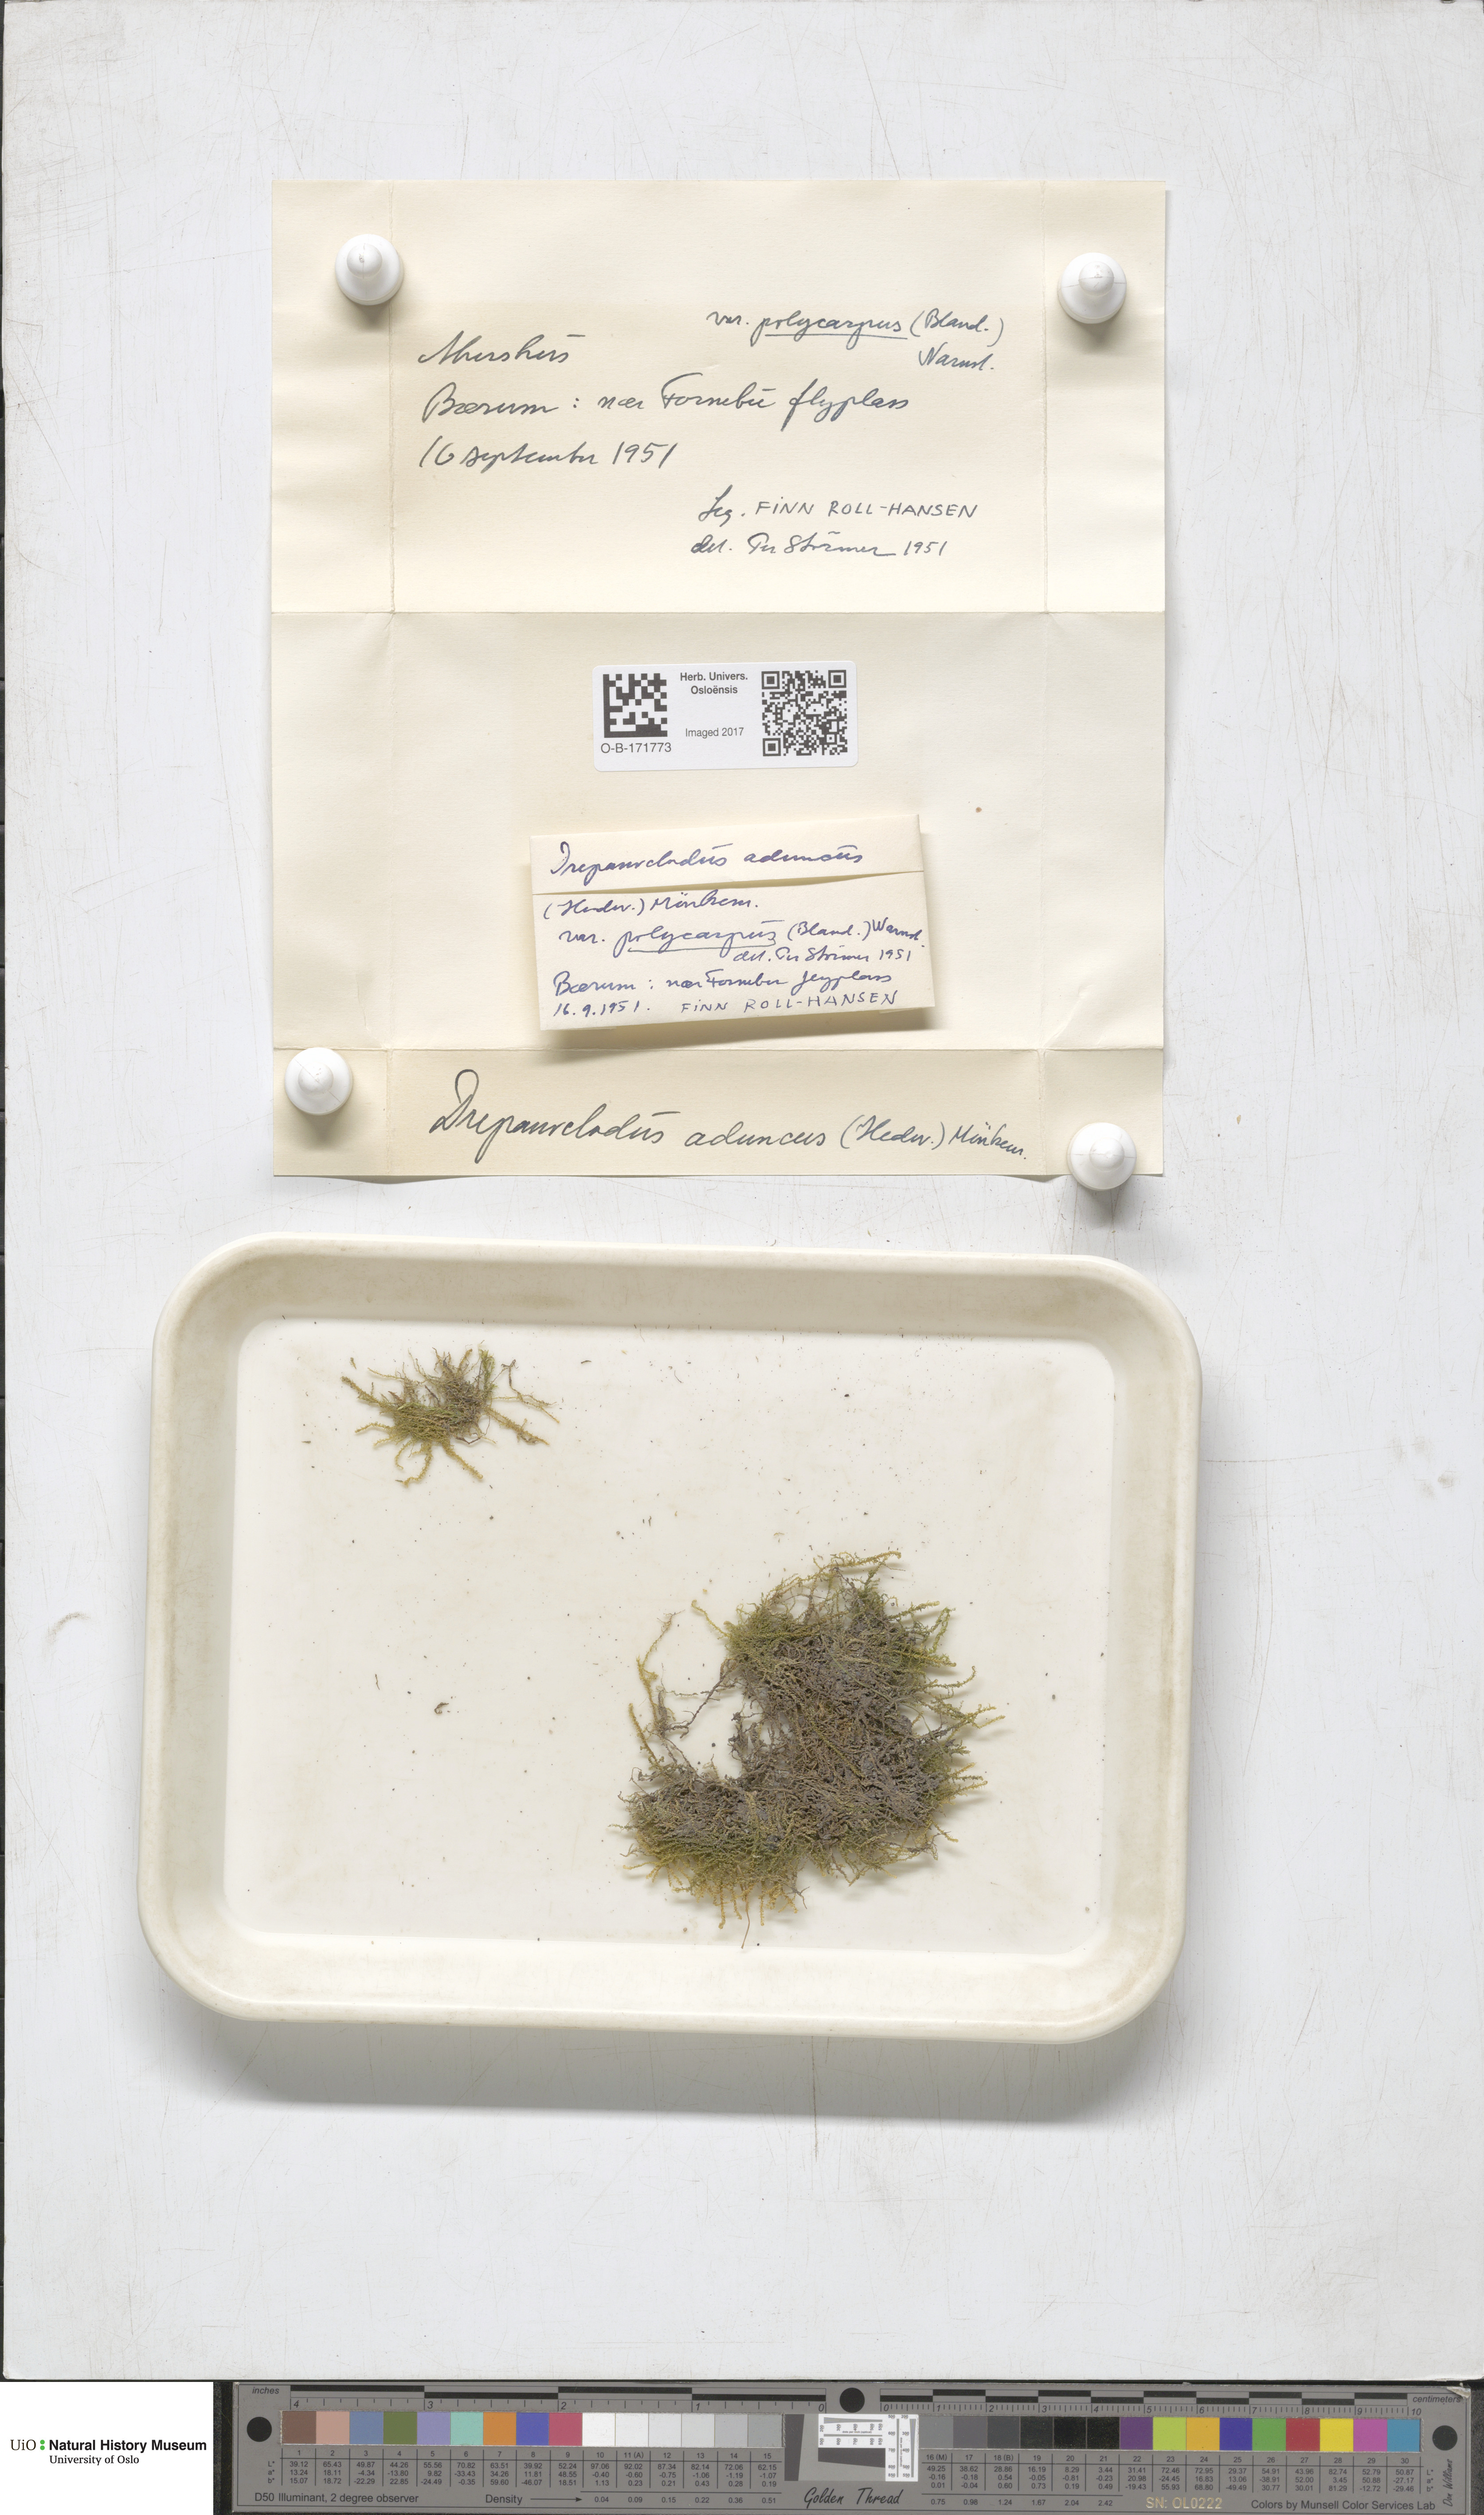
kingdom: Plantae
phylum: Bryophyta
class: Bryopsida
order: Hypnales
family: Amblystegiaceae
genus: Drepanocladus
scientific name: Drepanocladus aduncus
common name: Knieff's hook moss
